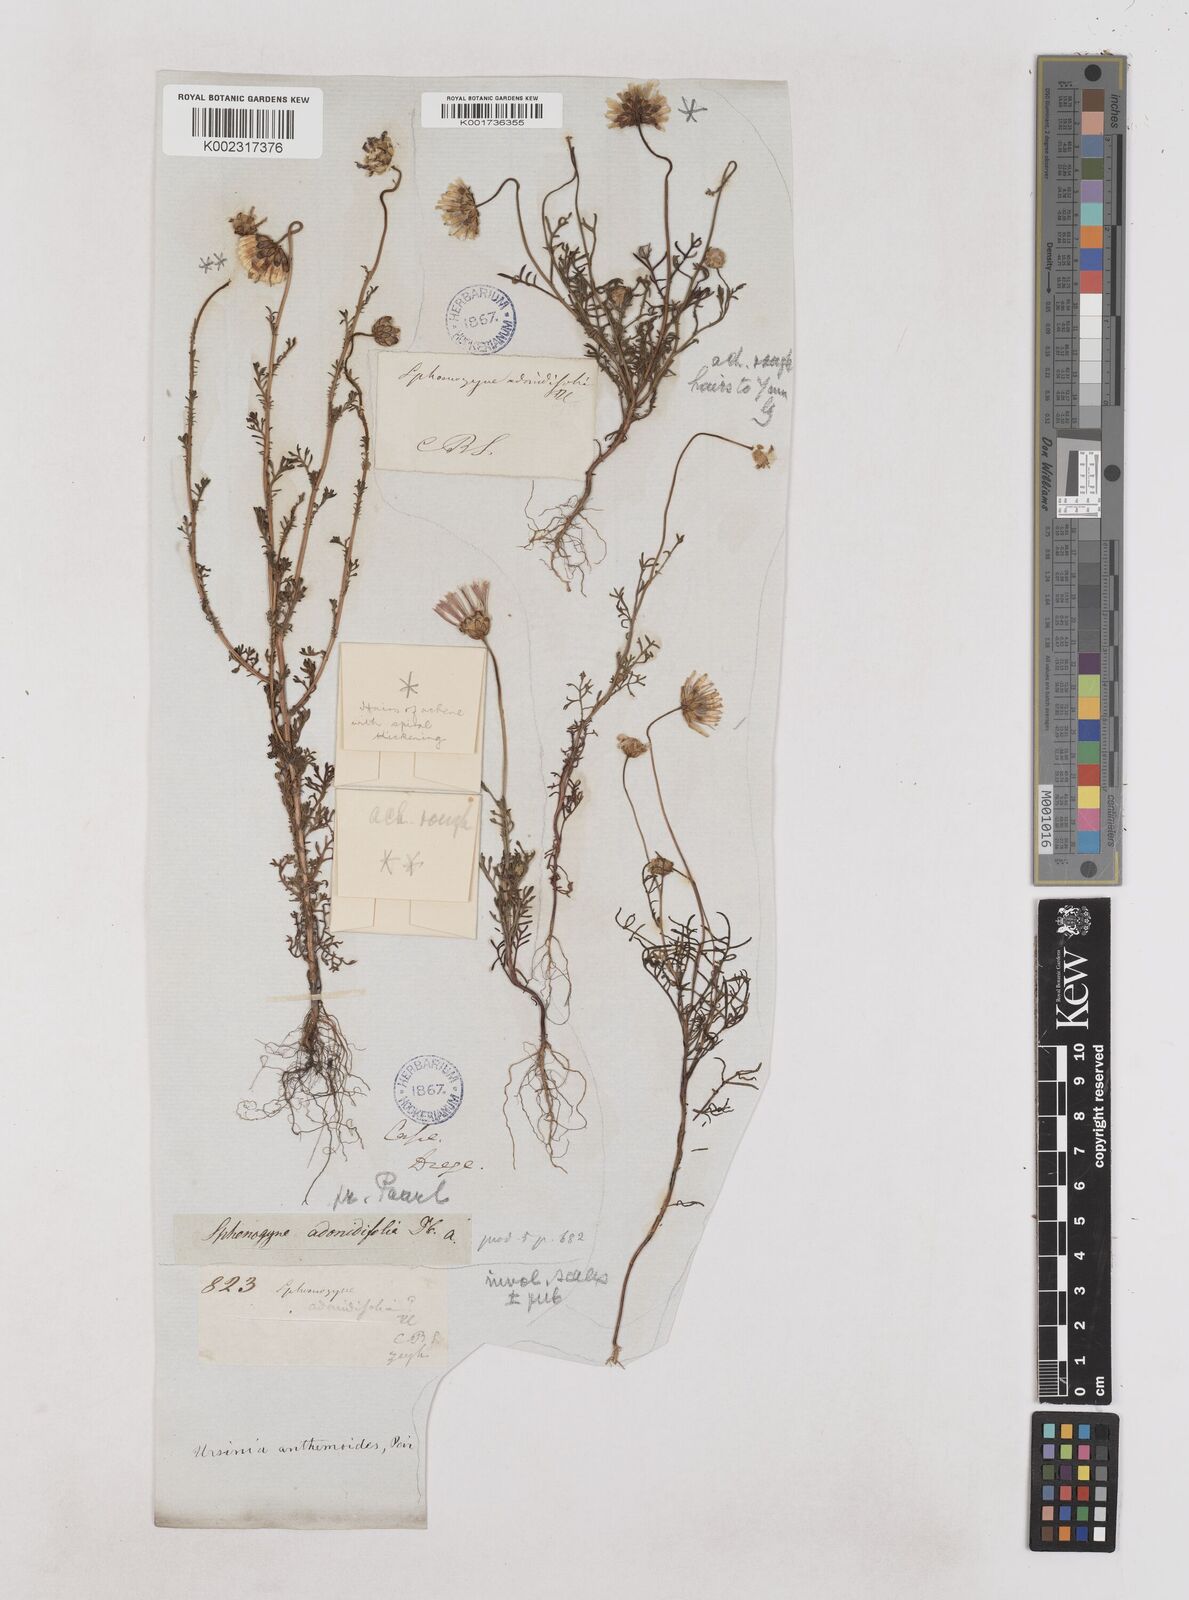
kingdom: Plantae
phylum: Tracheophyta
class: Magnoliopsida
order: Asterales
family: Asteraceae
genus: Ursinia
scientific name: Ursinia anthemoides
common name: Ursinia
